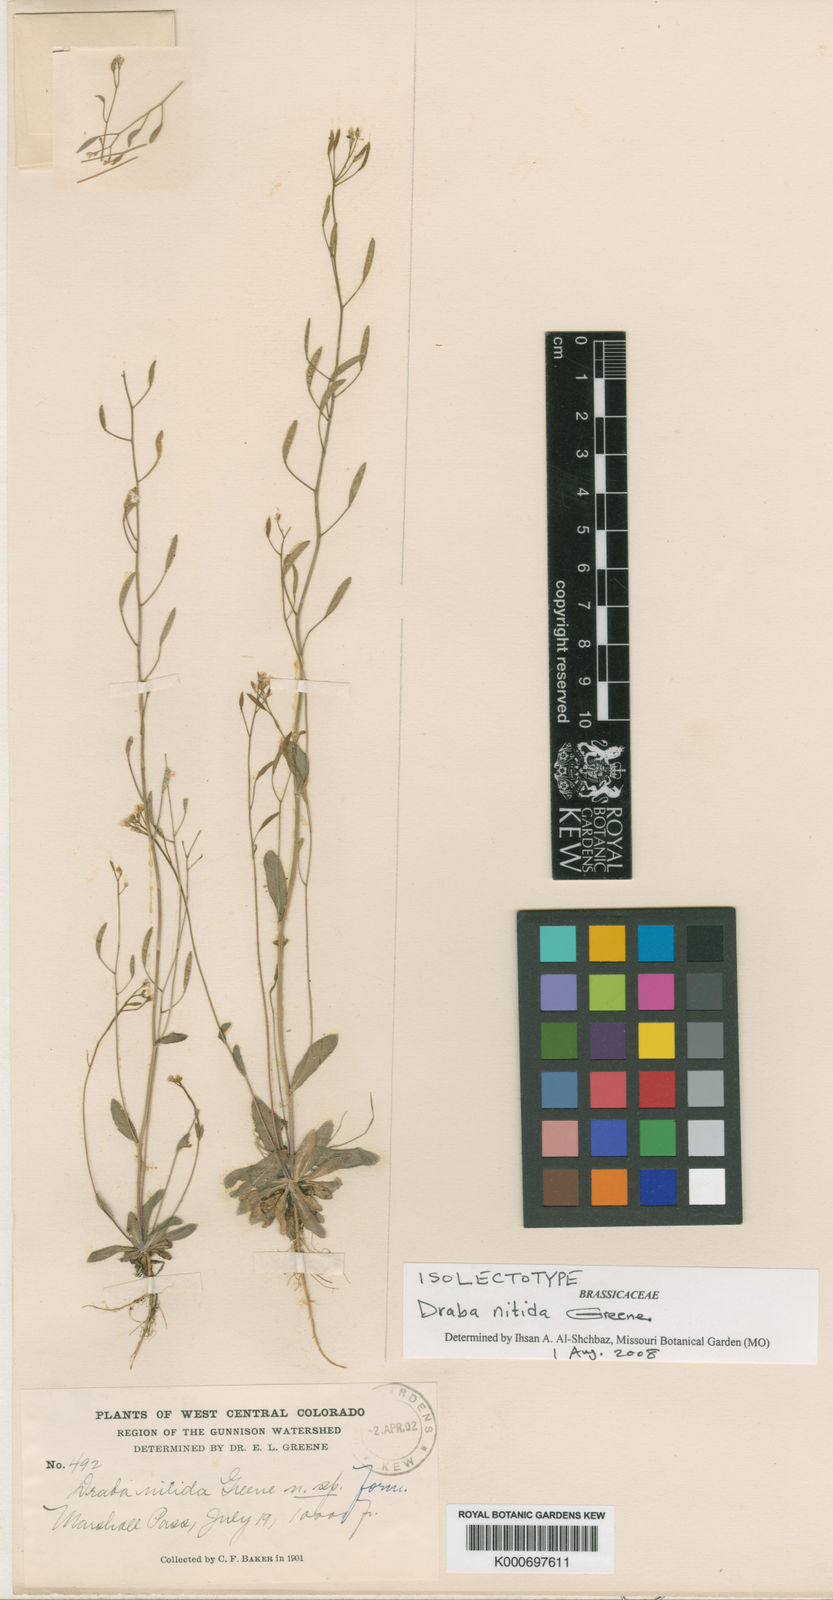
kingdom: Plantae
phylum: Tracheophyta
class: Magnoliopsida
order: Brassicales
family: Brassicaceae
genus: Draba
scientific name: Draba albertina
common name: Slender draba
